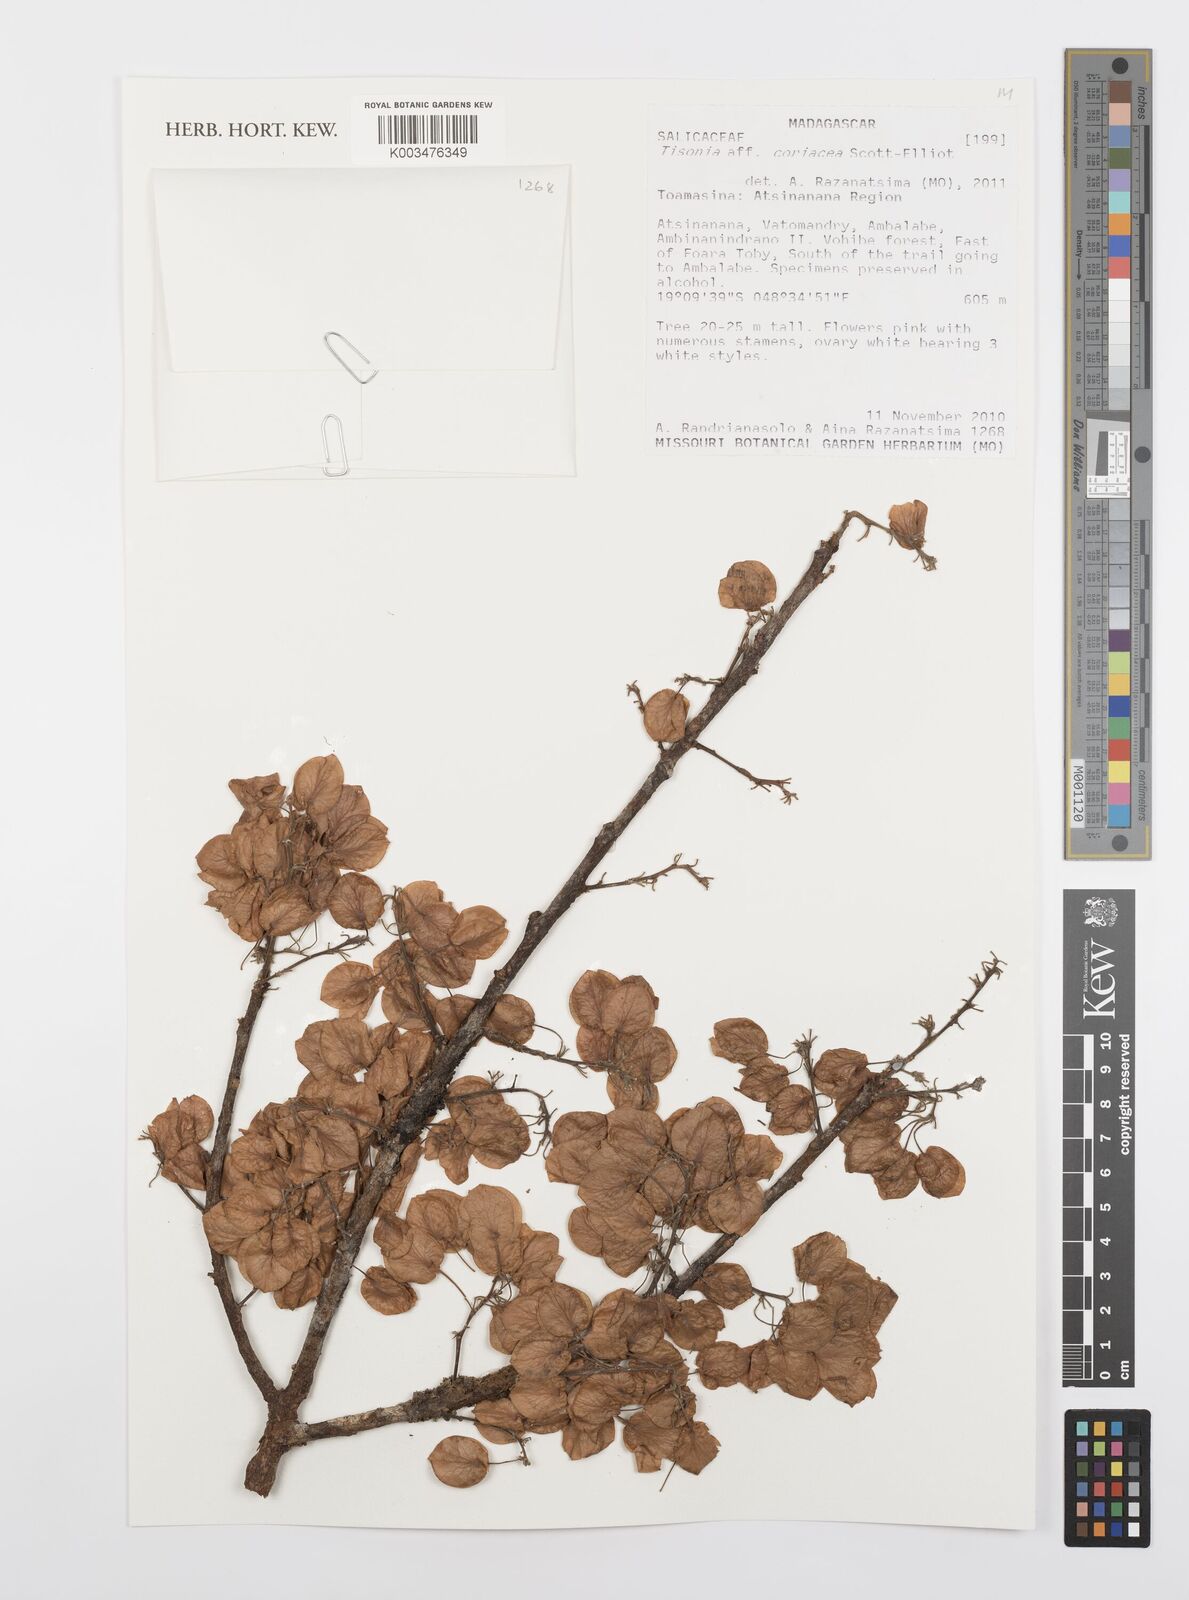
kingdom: Plantae
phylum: Tracheophyta
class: Magnoliopsida
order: Malpighiales
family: Salicaceae
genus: Tisonia
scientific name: Tisonia coriacea
